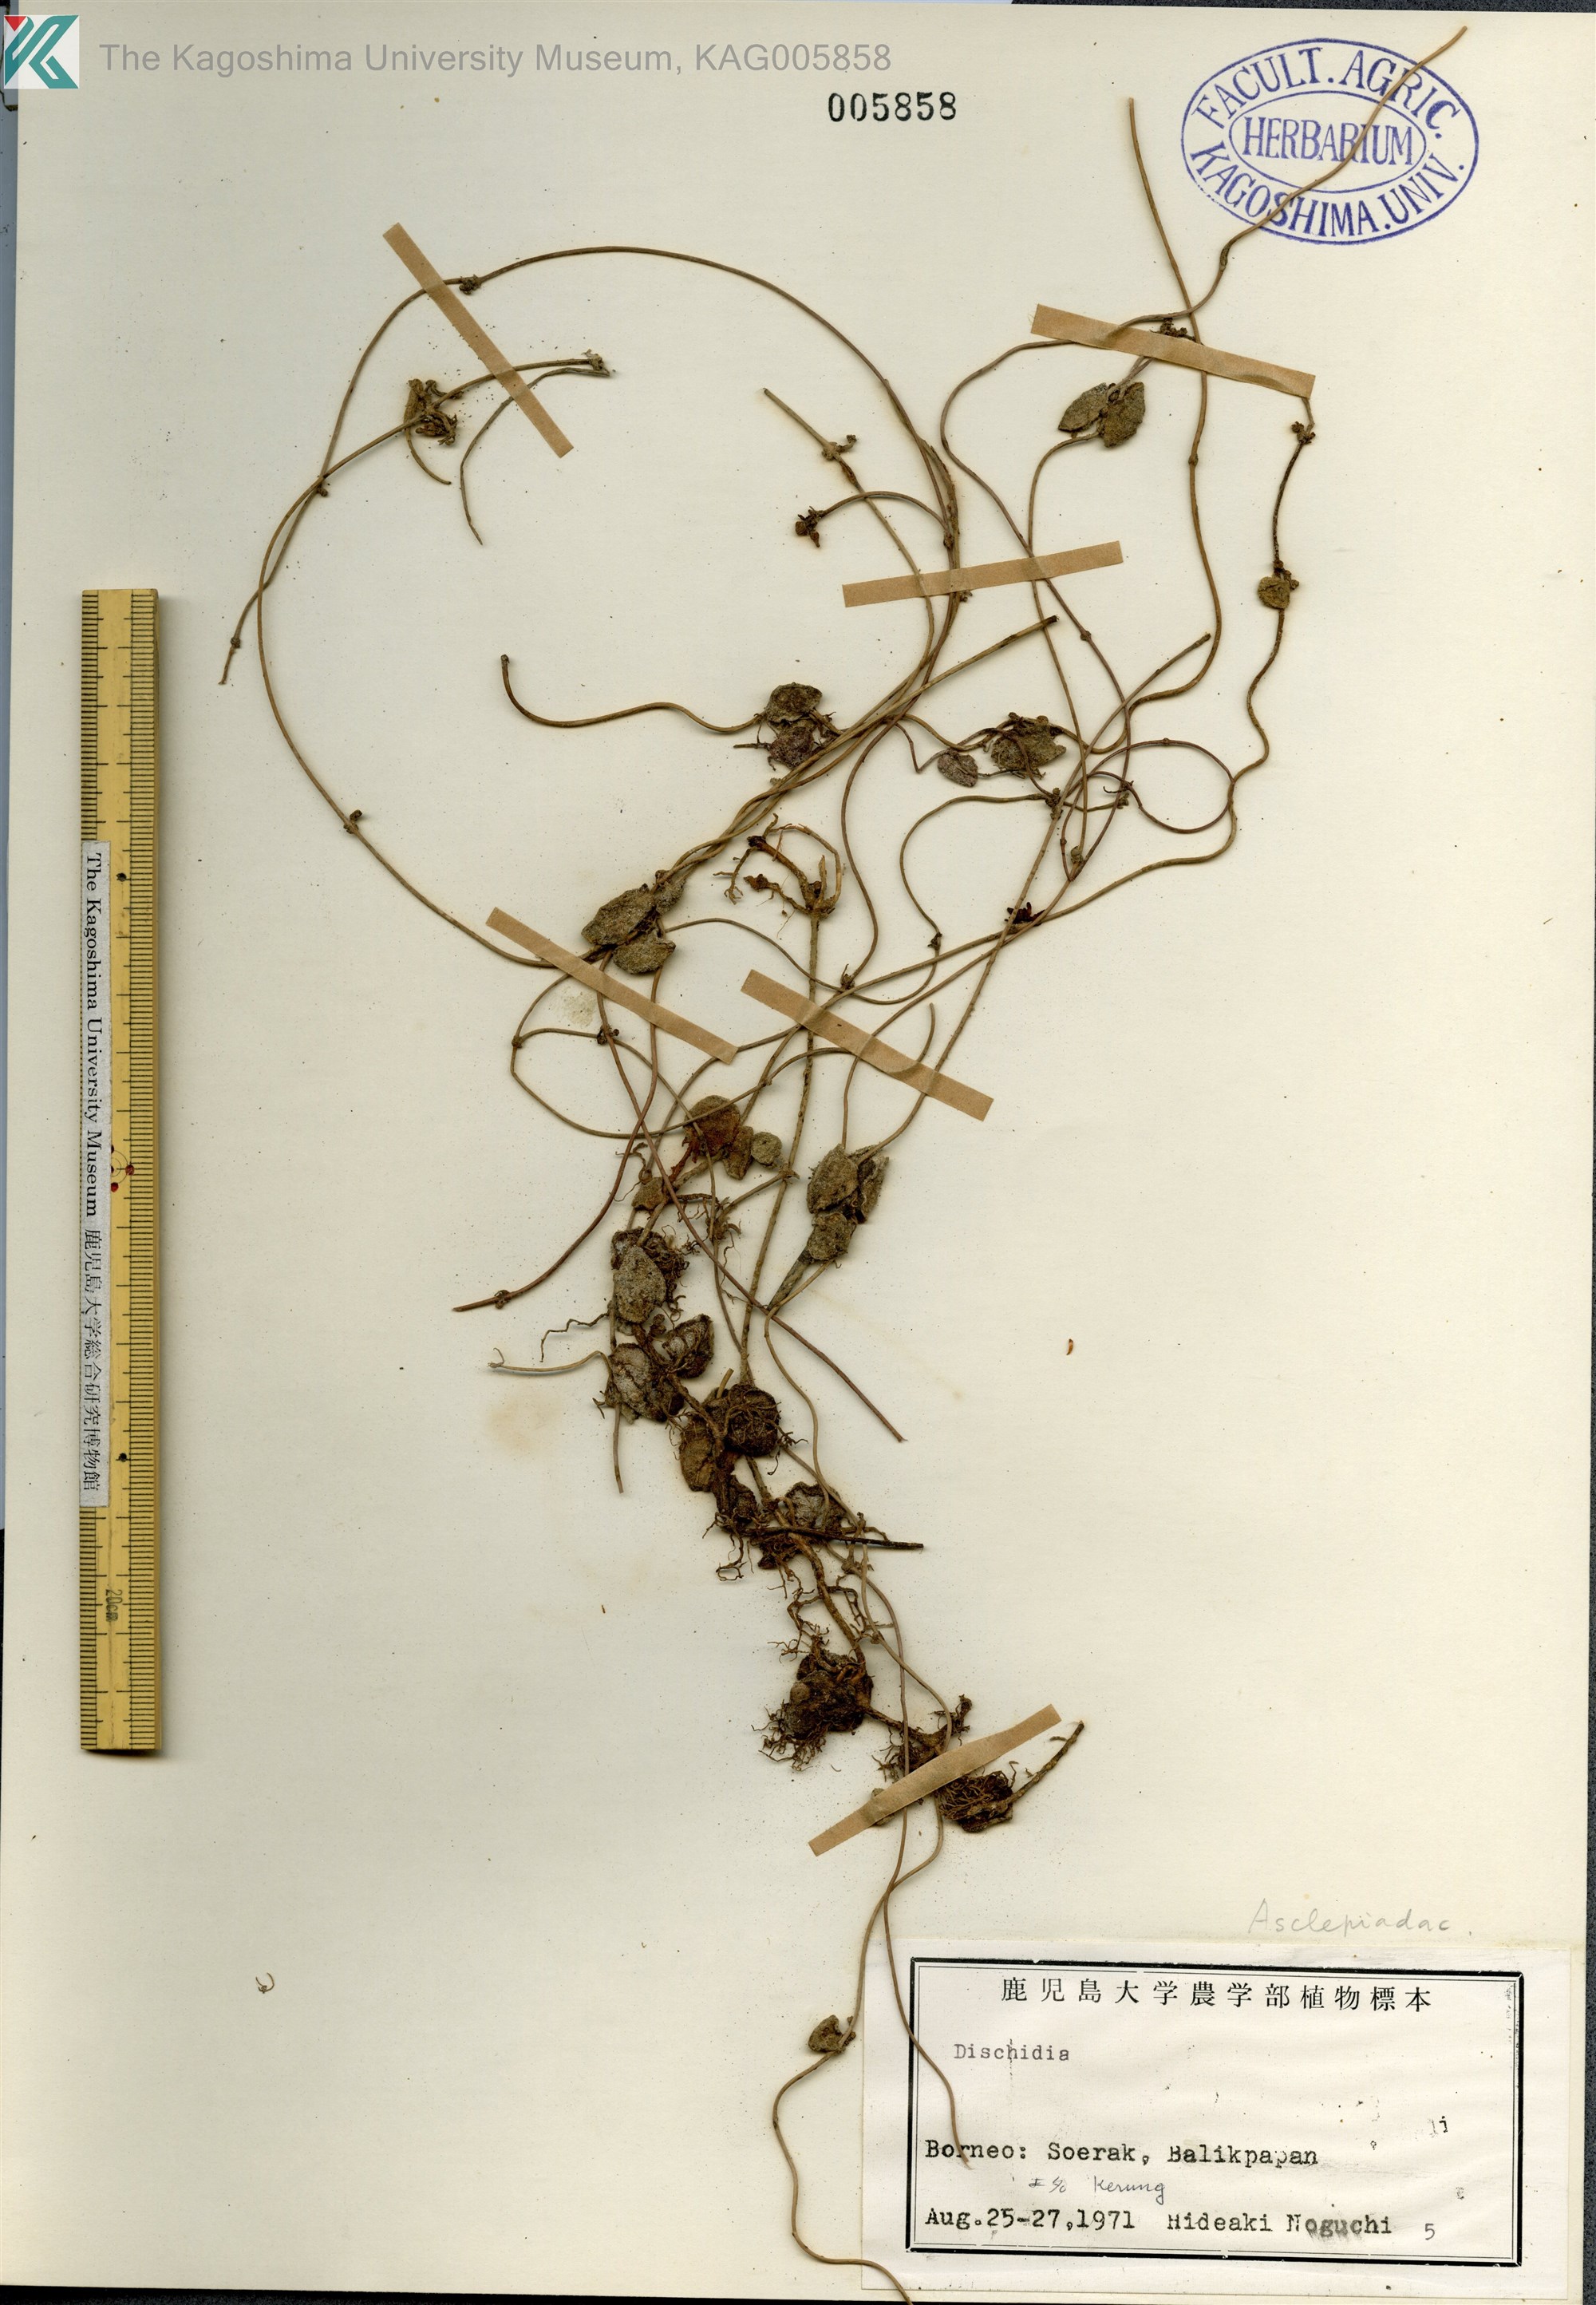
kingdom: Plantae
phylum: Tracheophyta
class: Magnoliopsida
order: Gentianales
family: Apocynaceae
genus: Dischidia
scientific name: Dischidia
